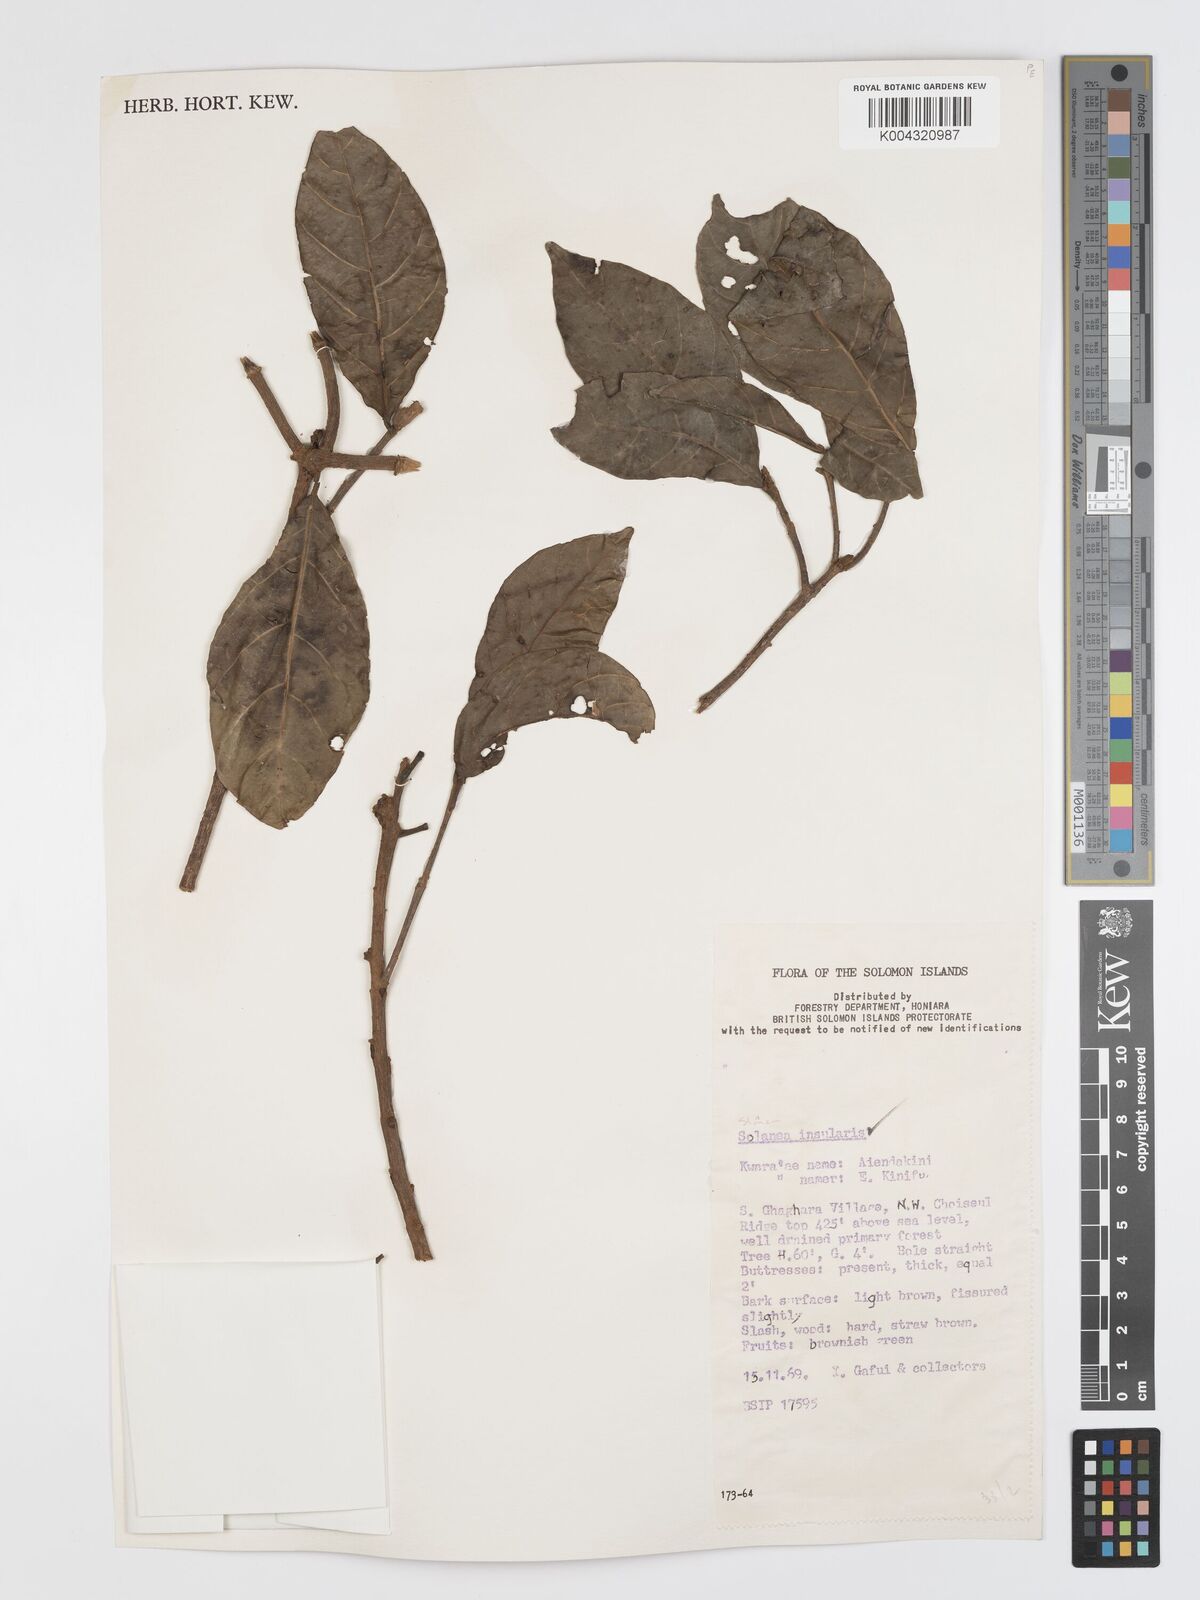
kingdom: Plantae
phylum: Tracheophyta
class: Magnoliopsida
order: Oxalidales
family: Elaeocarpaceae
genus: Sloanea
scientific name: Sloanea insularis
